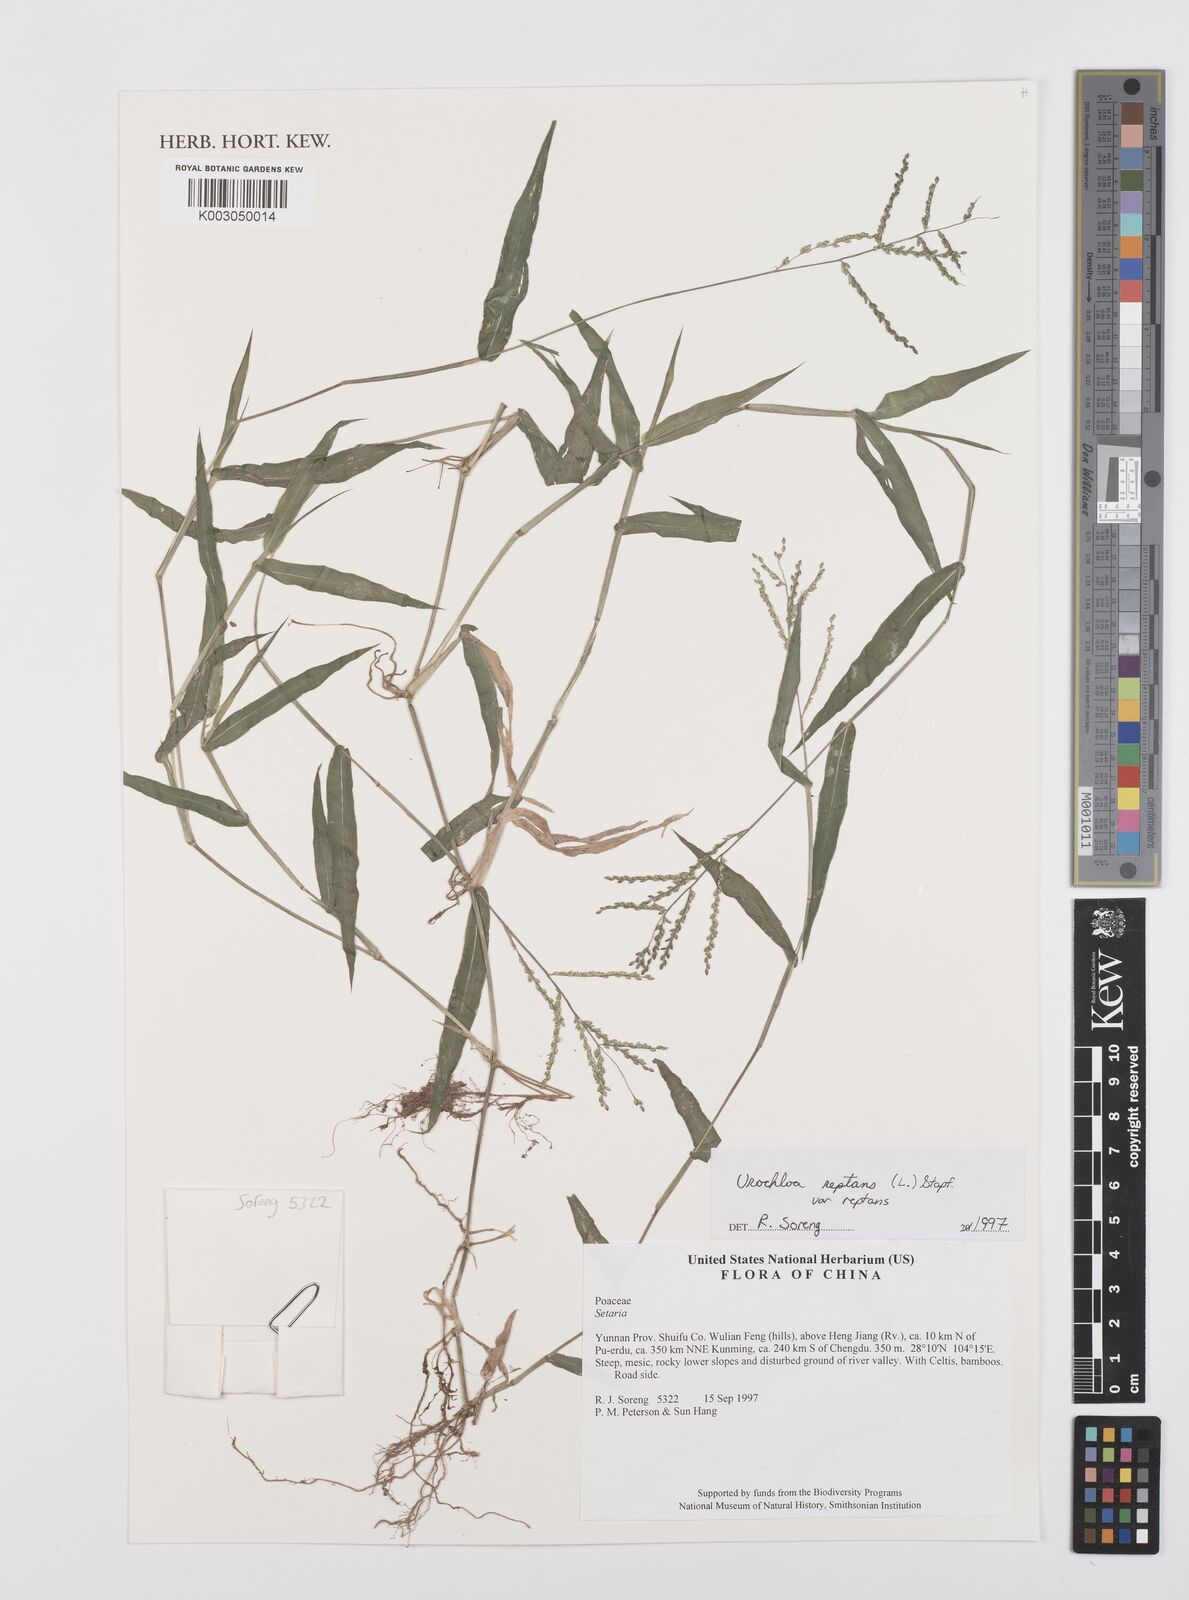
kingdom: Plantae
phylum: Tracheophyta
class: Liliopsida
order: Poales
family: Poaceae
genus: Urochloa
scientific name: Urochloa reptans
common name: Sprawling signalgrass
